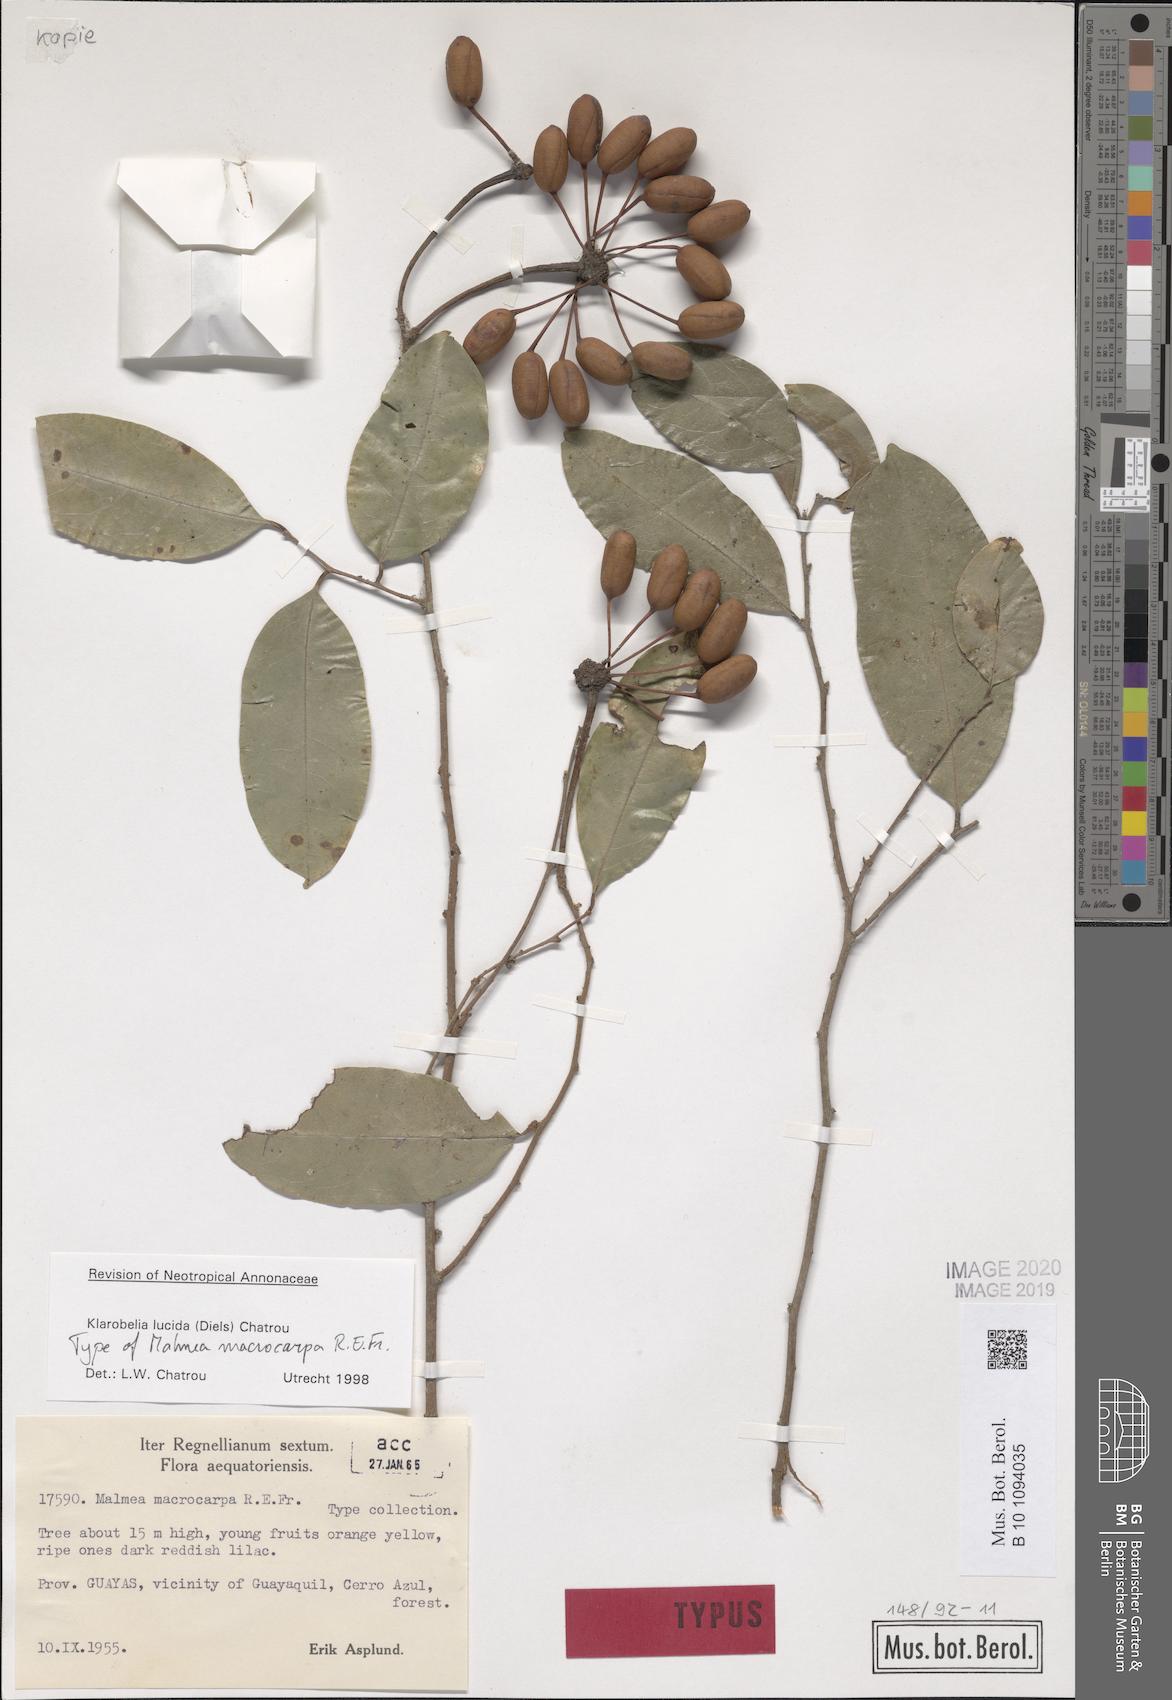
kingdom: Plantae
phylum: Tracheophyta
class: Magnoliopsida
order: Magnoliales
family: Annonaceae
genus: Klarobelia
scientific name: Klarobelia lucida
